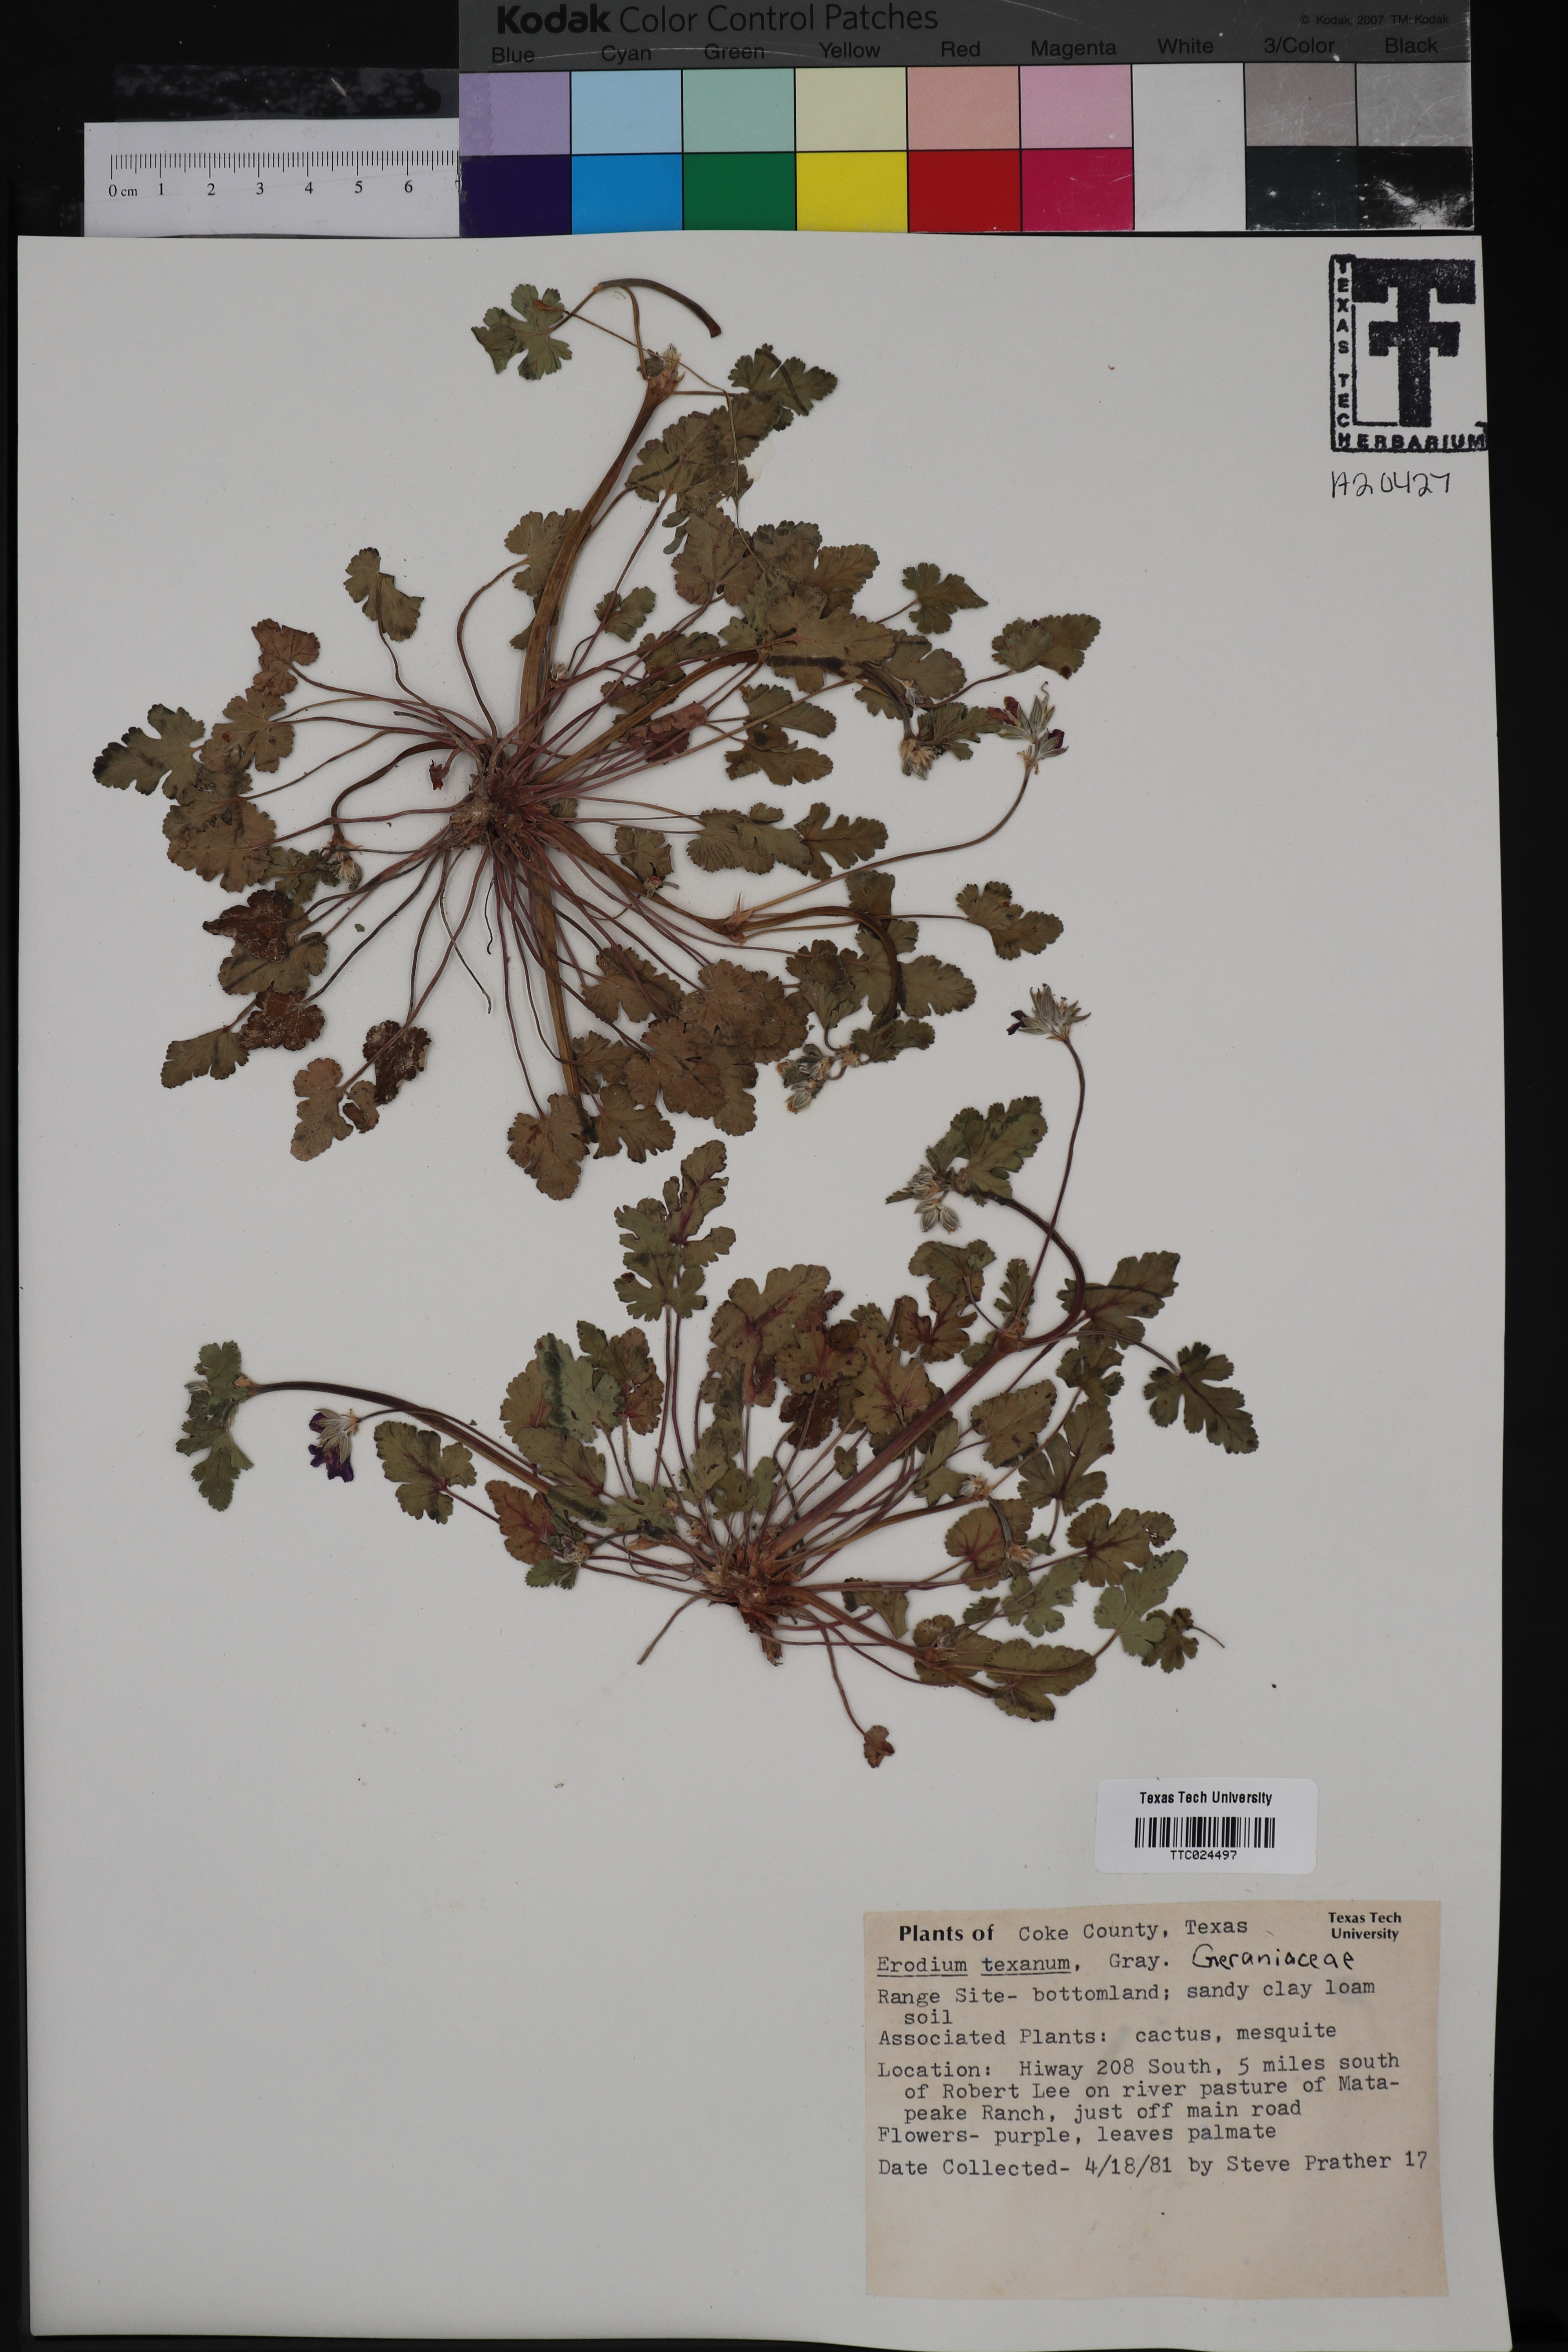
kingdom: Plantae
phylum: Tracheophyta
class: Magnoliopsida
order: Geraniales
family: Geraniaceae
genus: Erodium
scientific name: Erodium texanum
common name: Texas stork's-bill
